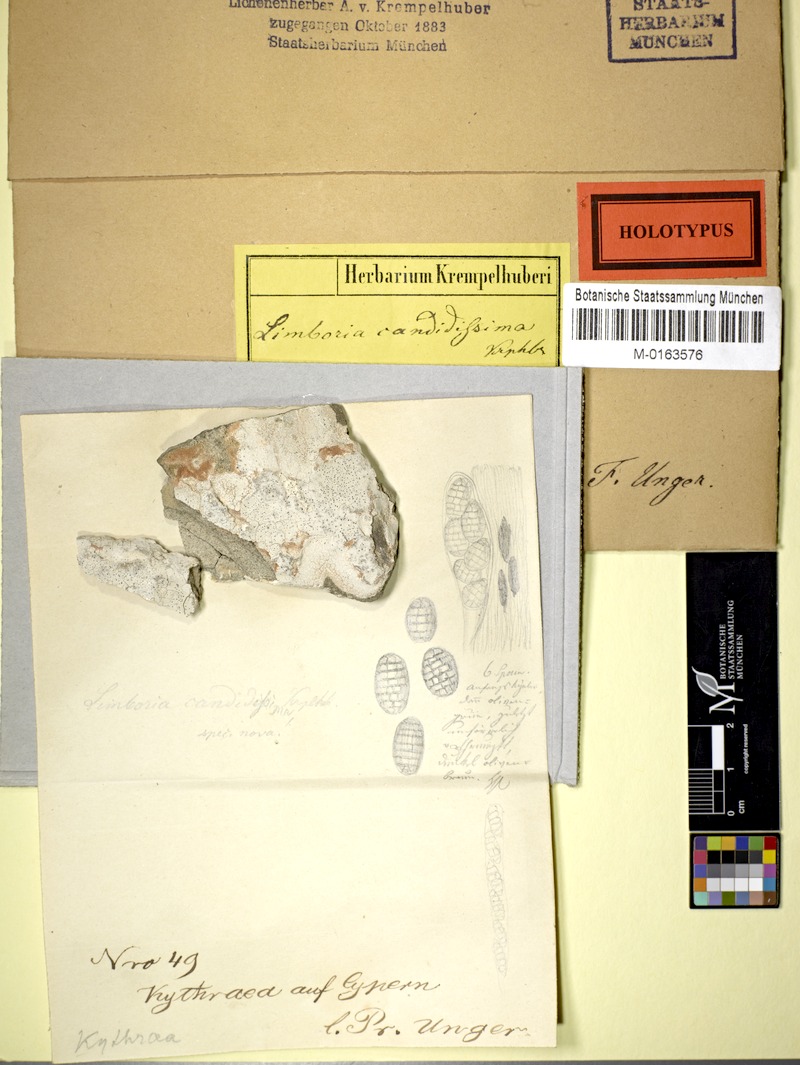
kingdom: Fungi
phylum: Ascomycota
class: Lecanoromycetes
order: Ostropales
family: Graphidaceae
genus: Diploschistes
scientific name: Diploschistes candidissimus
